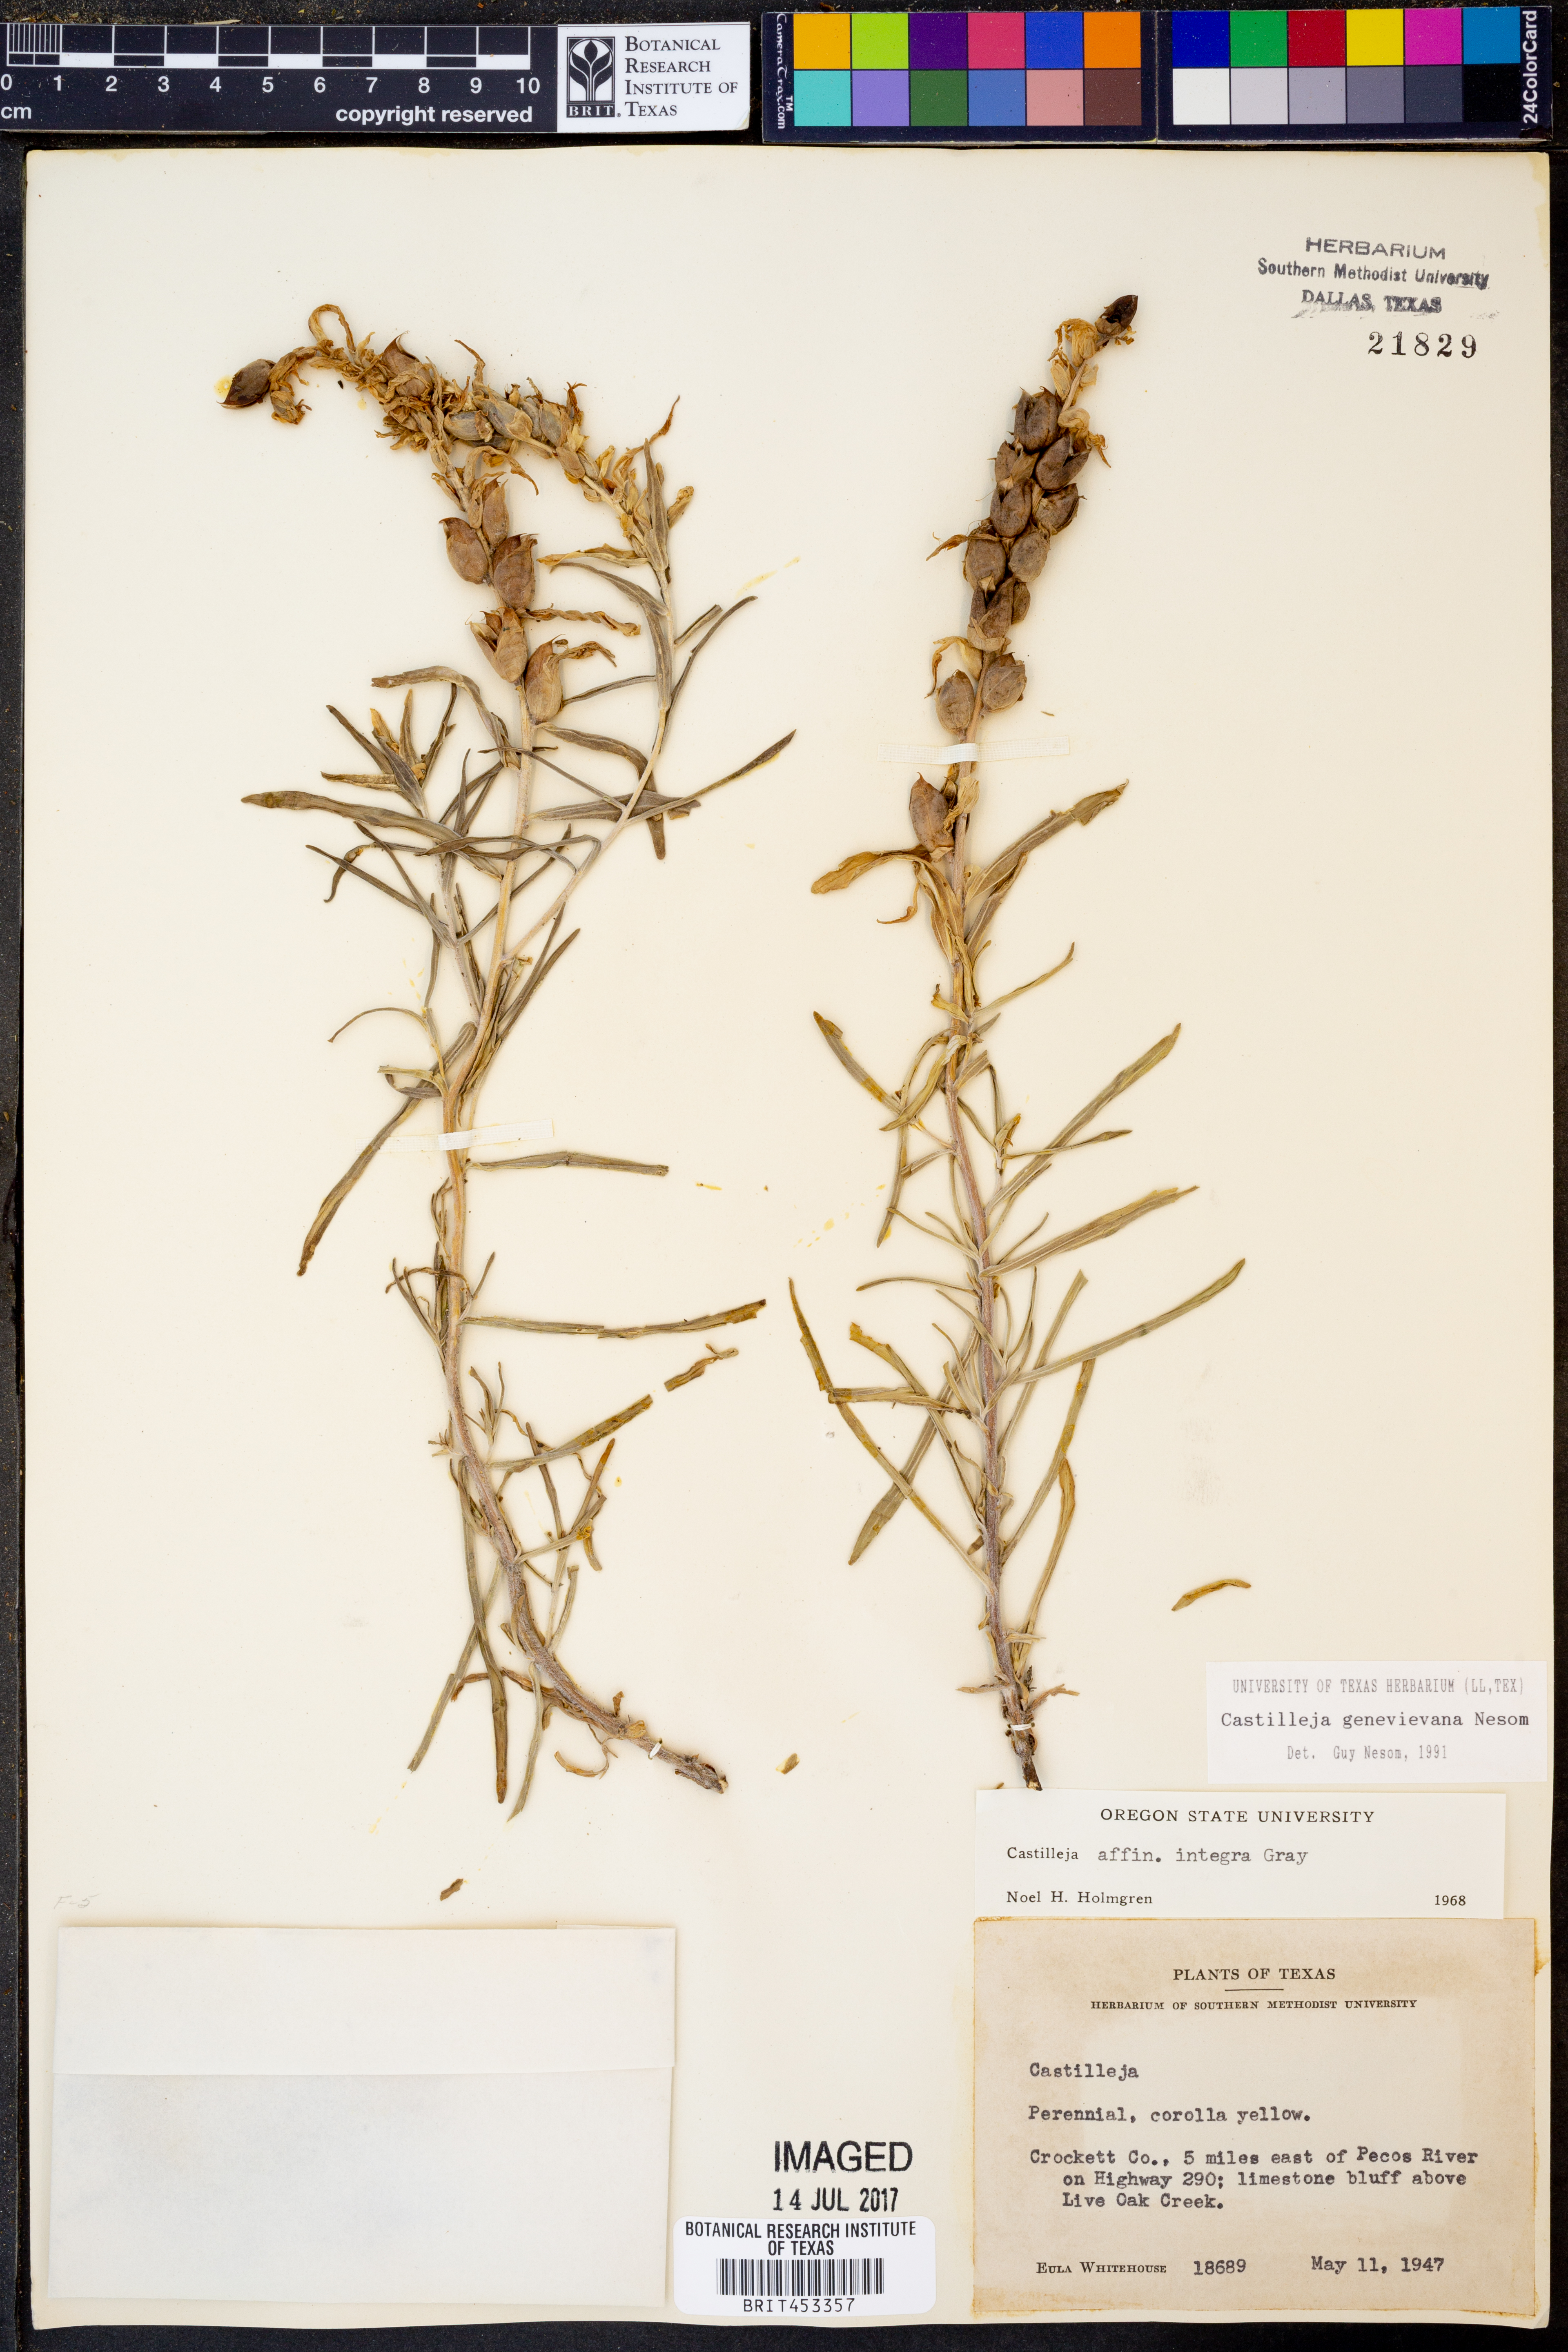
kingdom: Plantae
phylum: Tracheophyta
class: Magnoliopsida
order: Lamiales
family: Orobanchaceae
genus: Castilleja
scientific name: Castilleja genevievana
